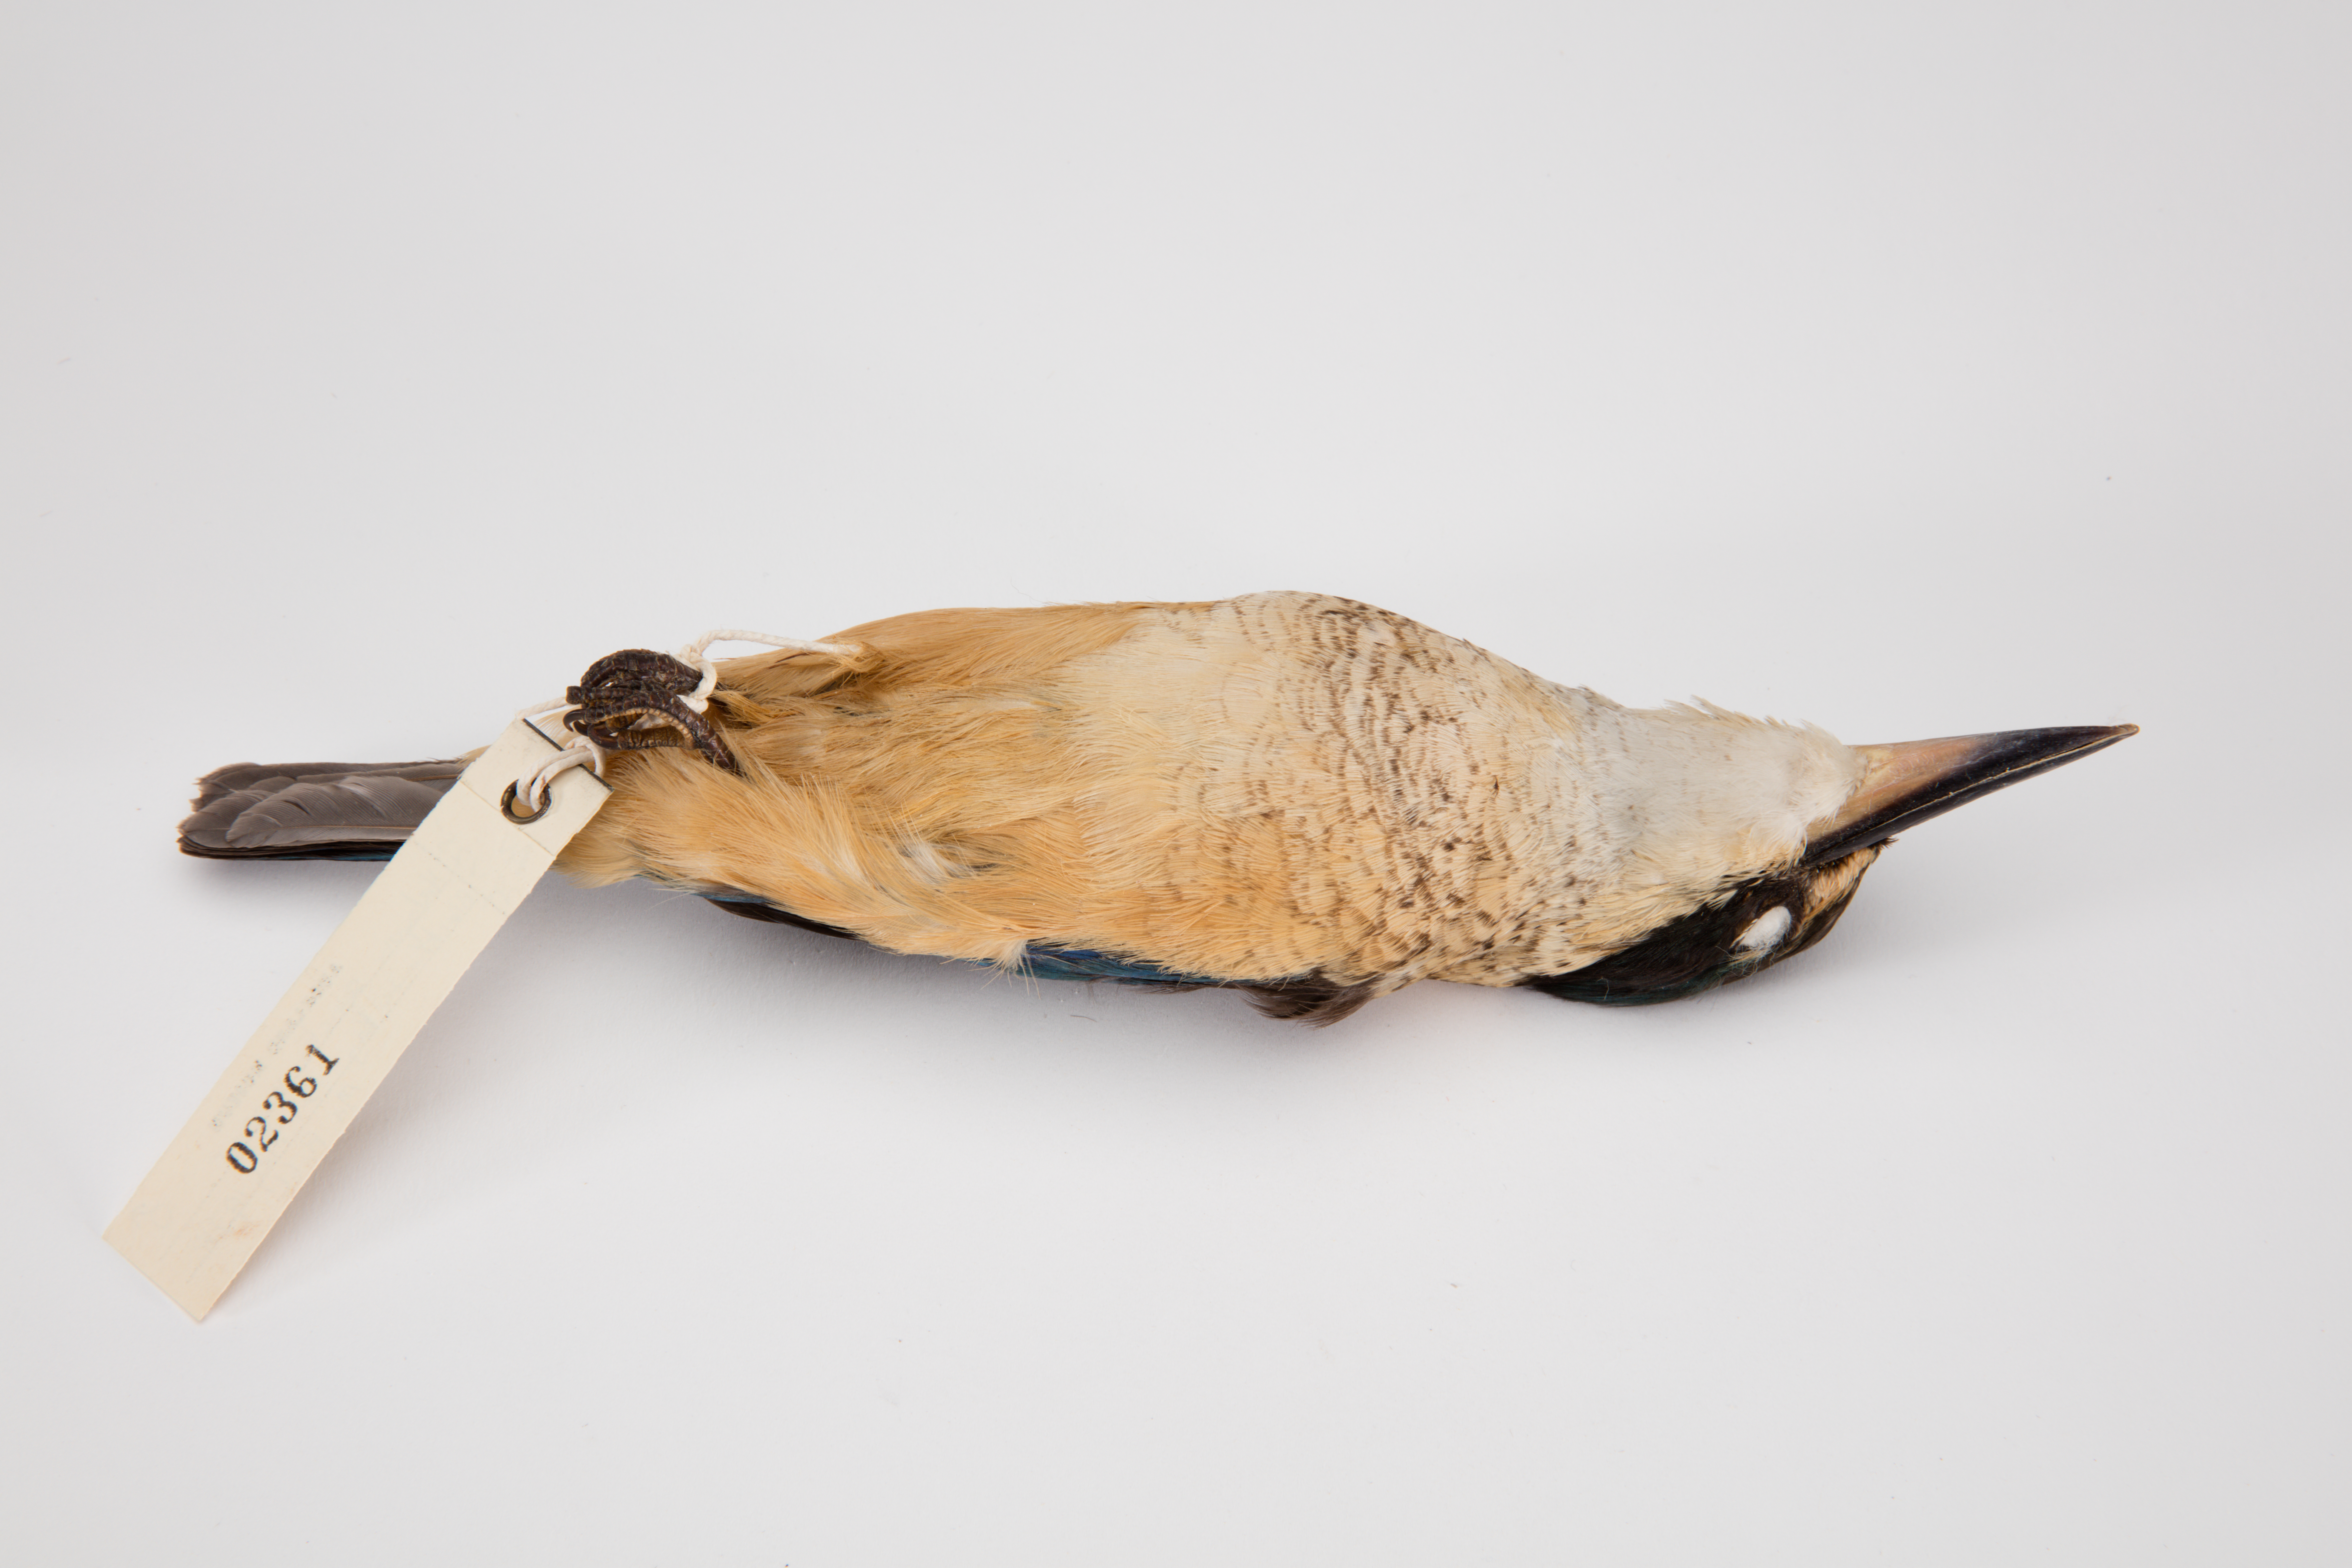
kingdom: Animalia
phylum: Chordata
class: Aves
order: Coraciiformes
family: Alcedinidae
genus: Todiramphus
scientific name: Todiramphus sanctus
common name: Sacred kingfisher
